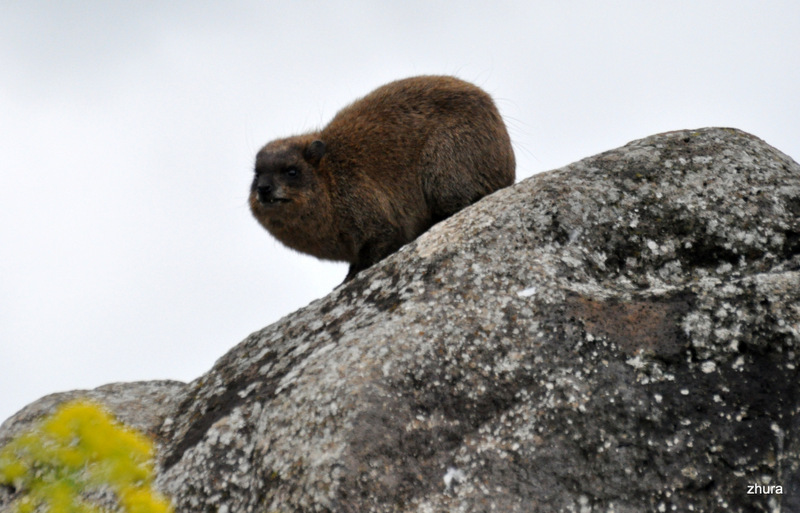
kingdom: Animalia
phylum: Chordata
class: Mammalia
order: Hyracoidea
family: Procaviidae
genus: Procavia
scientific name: Procavia capensis
